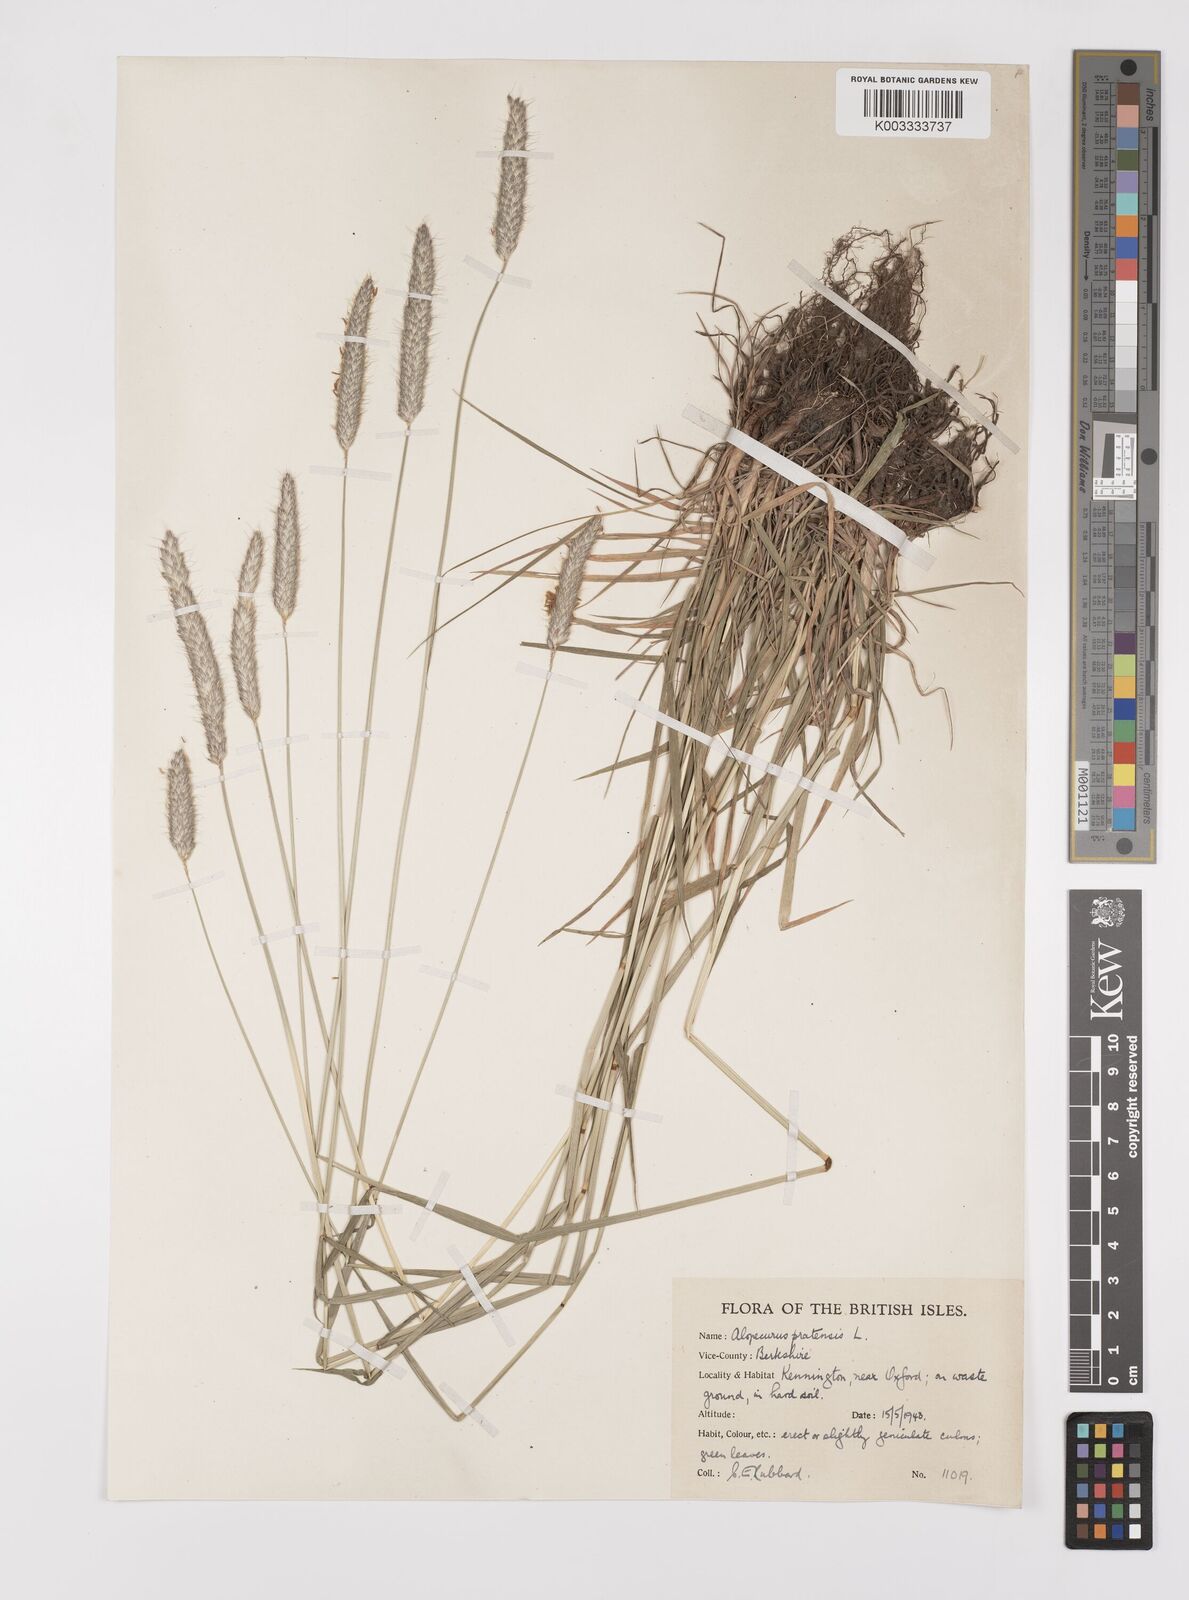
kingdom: Plantae
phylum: Tracheophyta
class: Liliopsida
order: Poales
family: Poaceae
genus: Alopecurus
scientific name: Alopecurus pratensis
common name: Meadow foxtail
